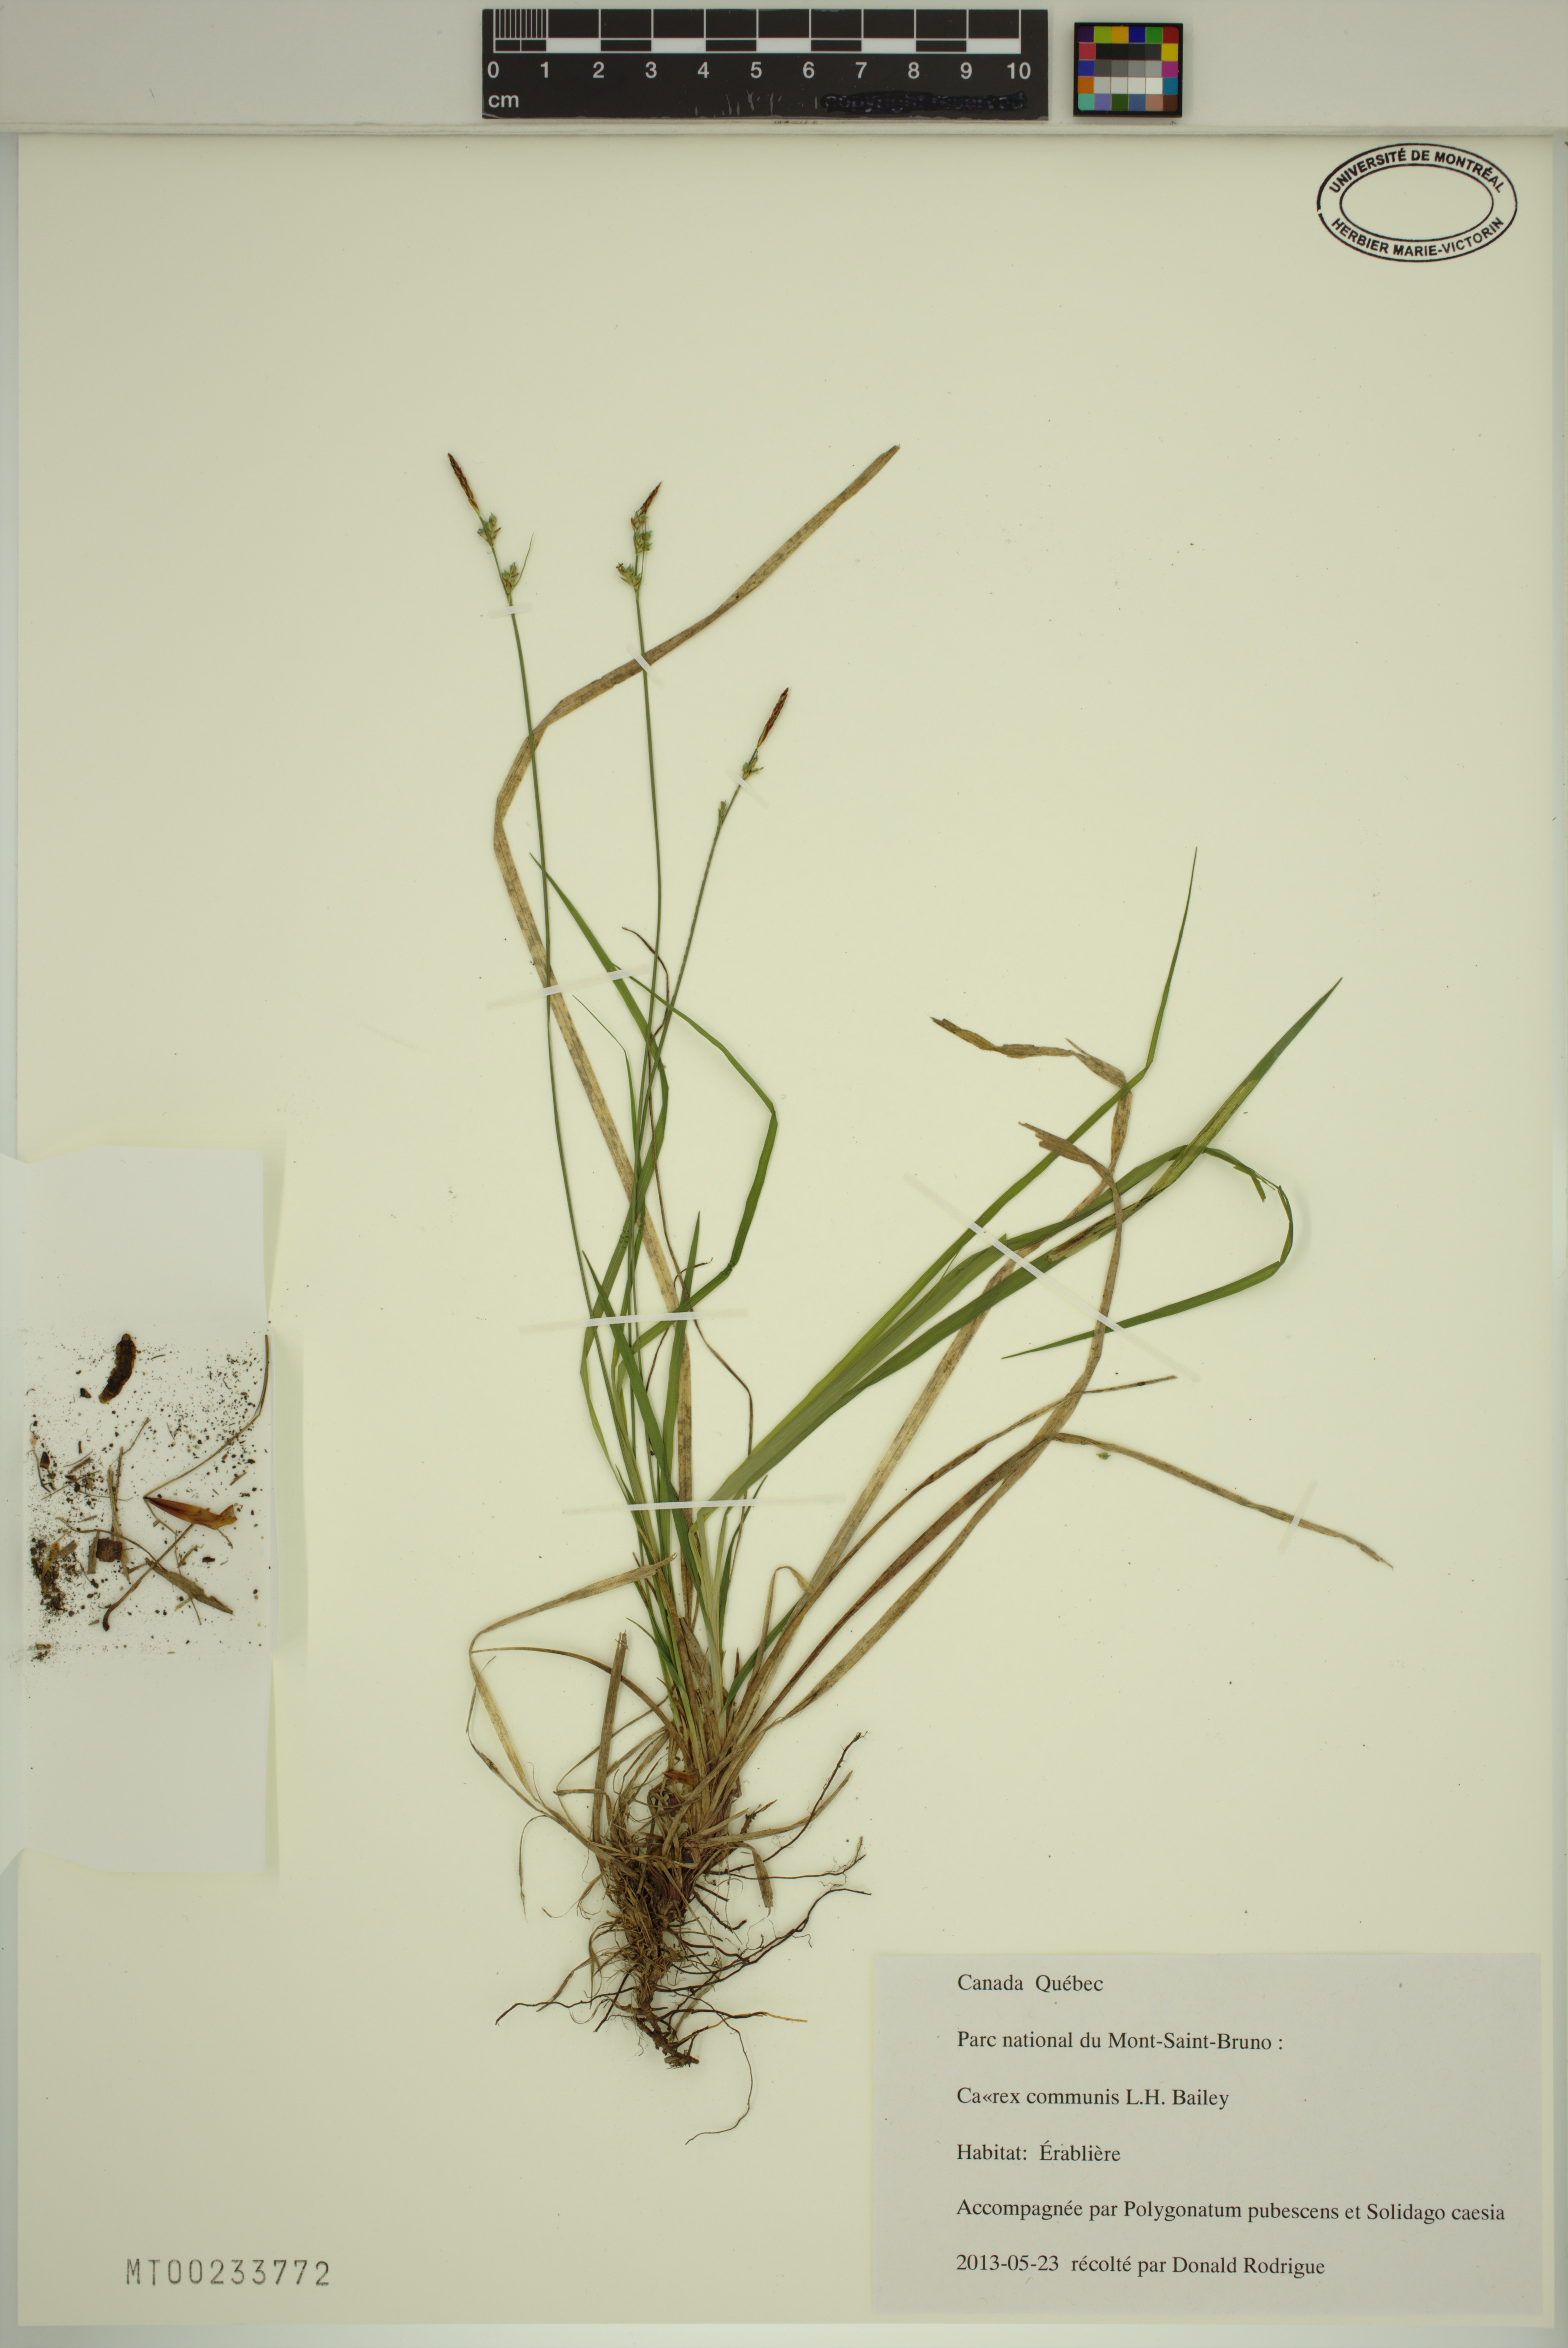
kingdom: Plantae
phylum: Tracheophyta
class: Liliopsida
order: Poales
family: Cyperaceae
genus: Carex
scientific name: Carex communis
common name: Colonial oak sedge
